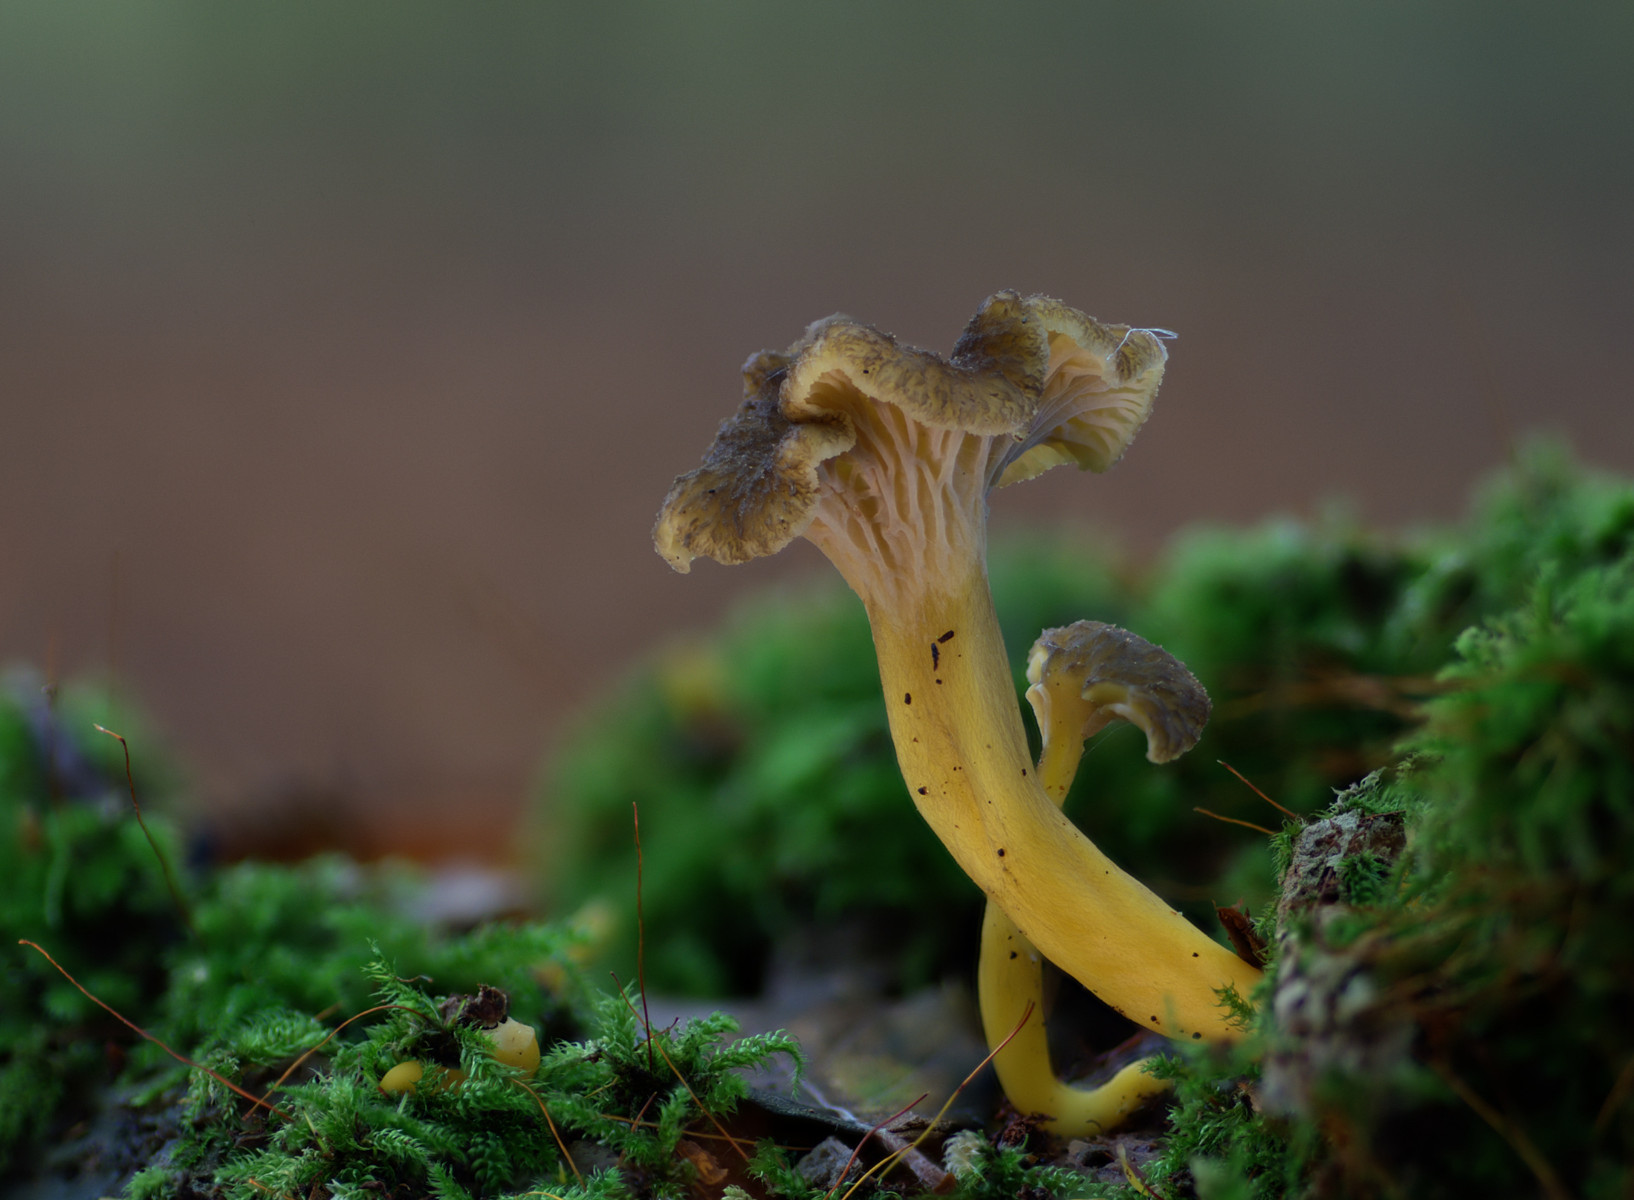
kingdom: Fungi
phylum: Basidiomycota
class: Agaricomycetes
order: Cantharellales
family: Hydnaceae
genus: Craterellus
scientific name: Craterellus tubaeformis
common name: tragt-kantarel
